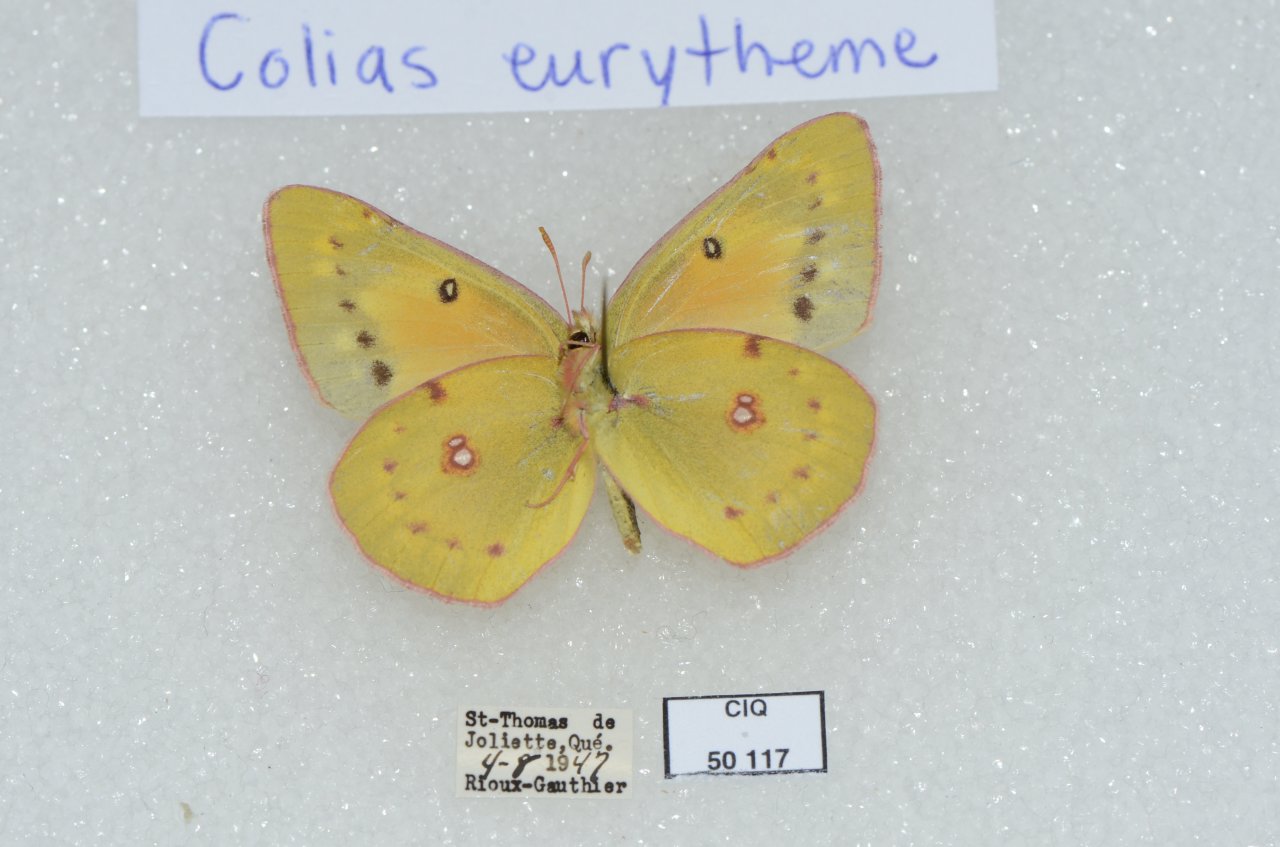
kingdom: Animalia
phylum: Arthropoda
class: Insecta
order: Lepidoptera
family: Pieridae
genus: Colias
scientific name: Colias eurytheme
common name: Orange Sulphur
